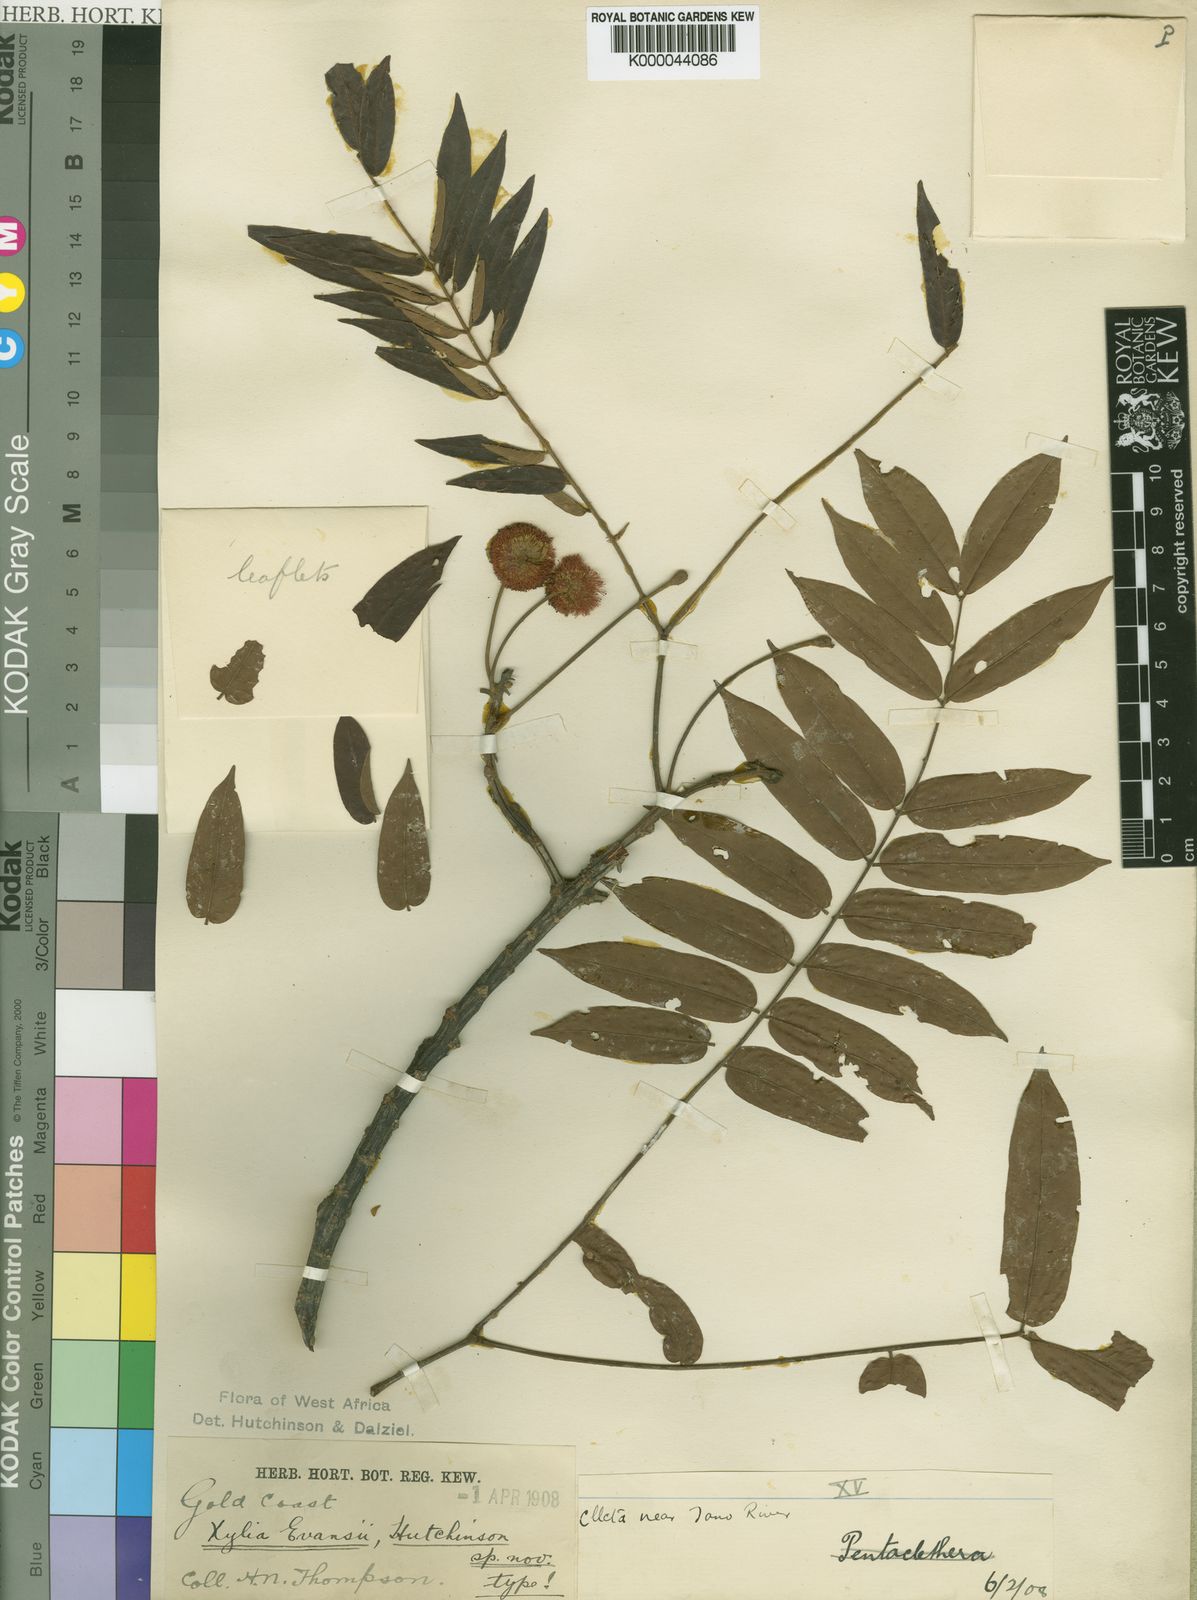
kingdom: Plantae
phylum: Tracheophyta
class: Magnoliopsida
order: Fabales
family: Fabaceae
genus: Xylia
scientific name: Xylia evansii
